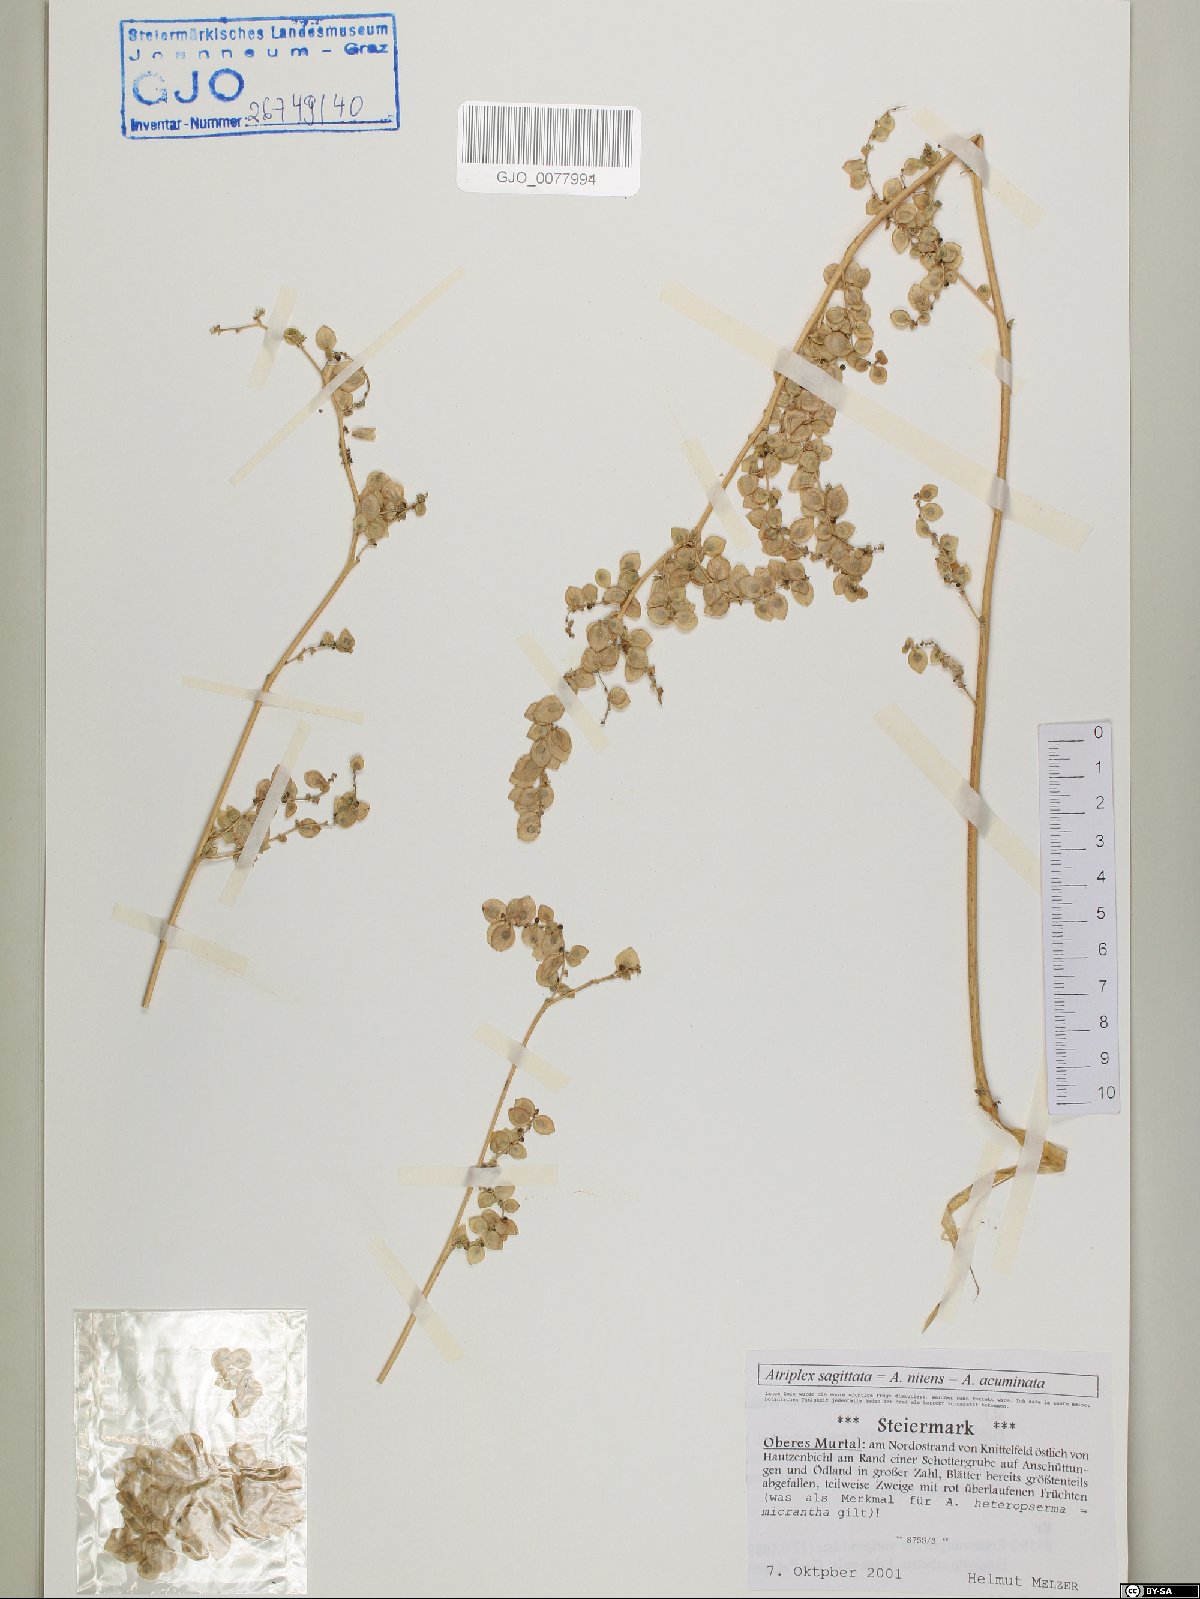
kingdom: Plantae
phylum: Tracheophyta
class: Magnoliopsida
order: Caryophyllales
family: Amaranthaceae
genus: Atriplex
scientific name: Atriplex sagittata
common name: Purple orache
